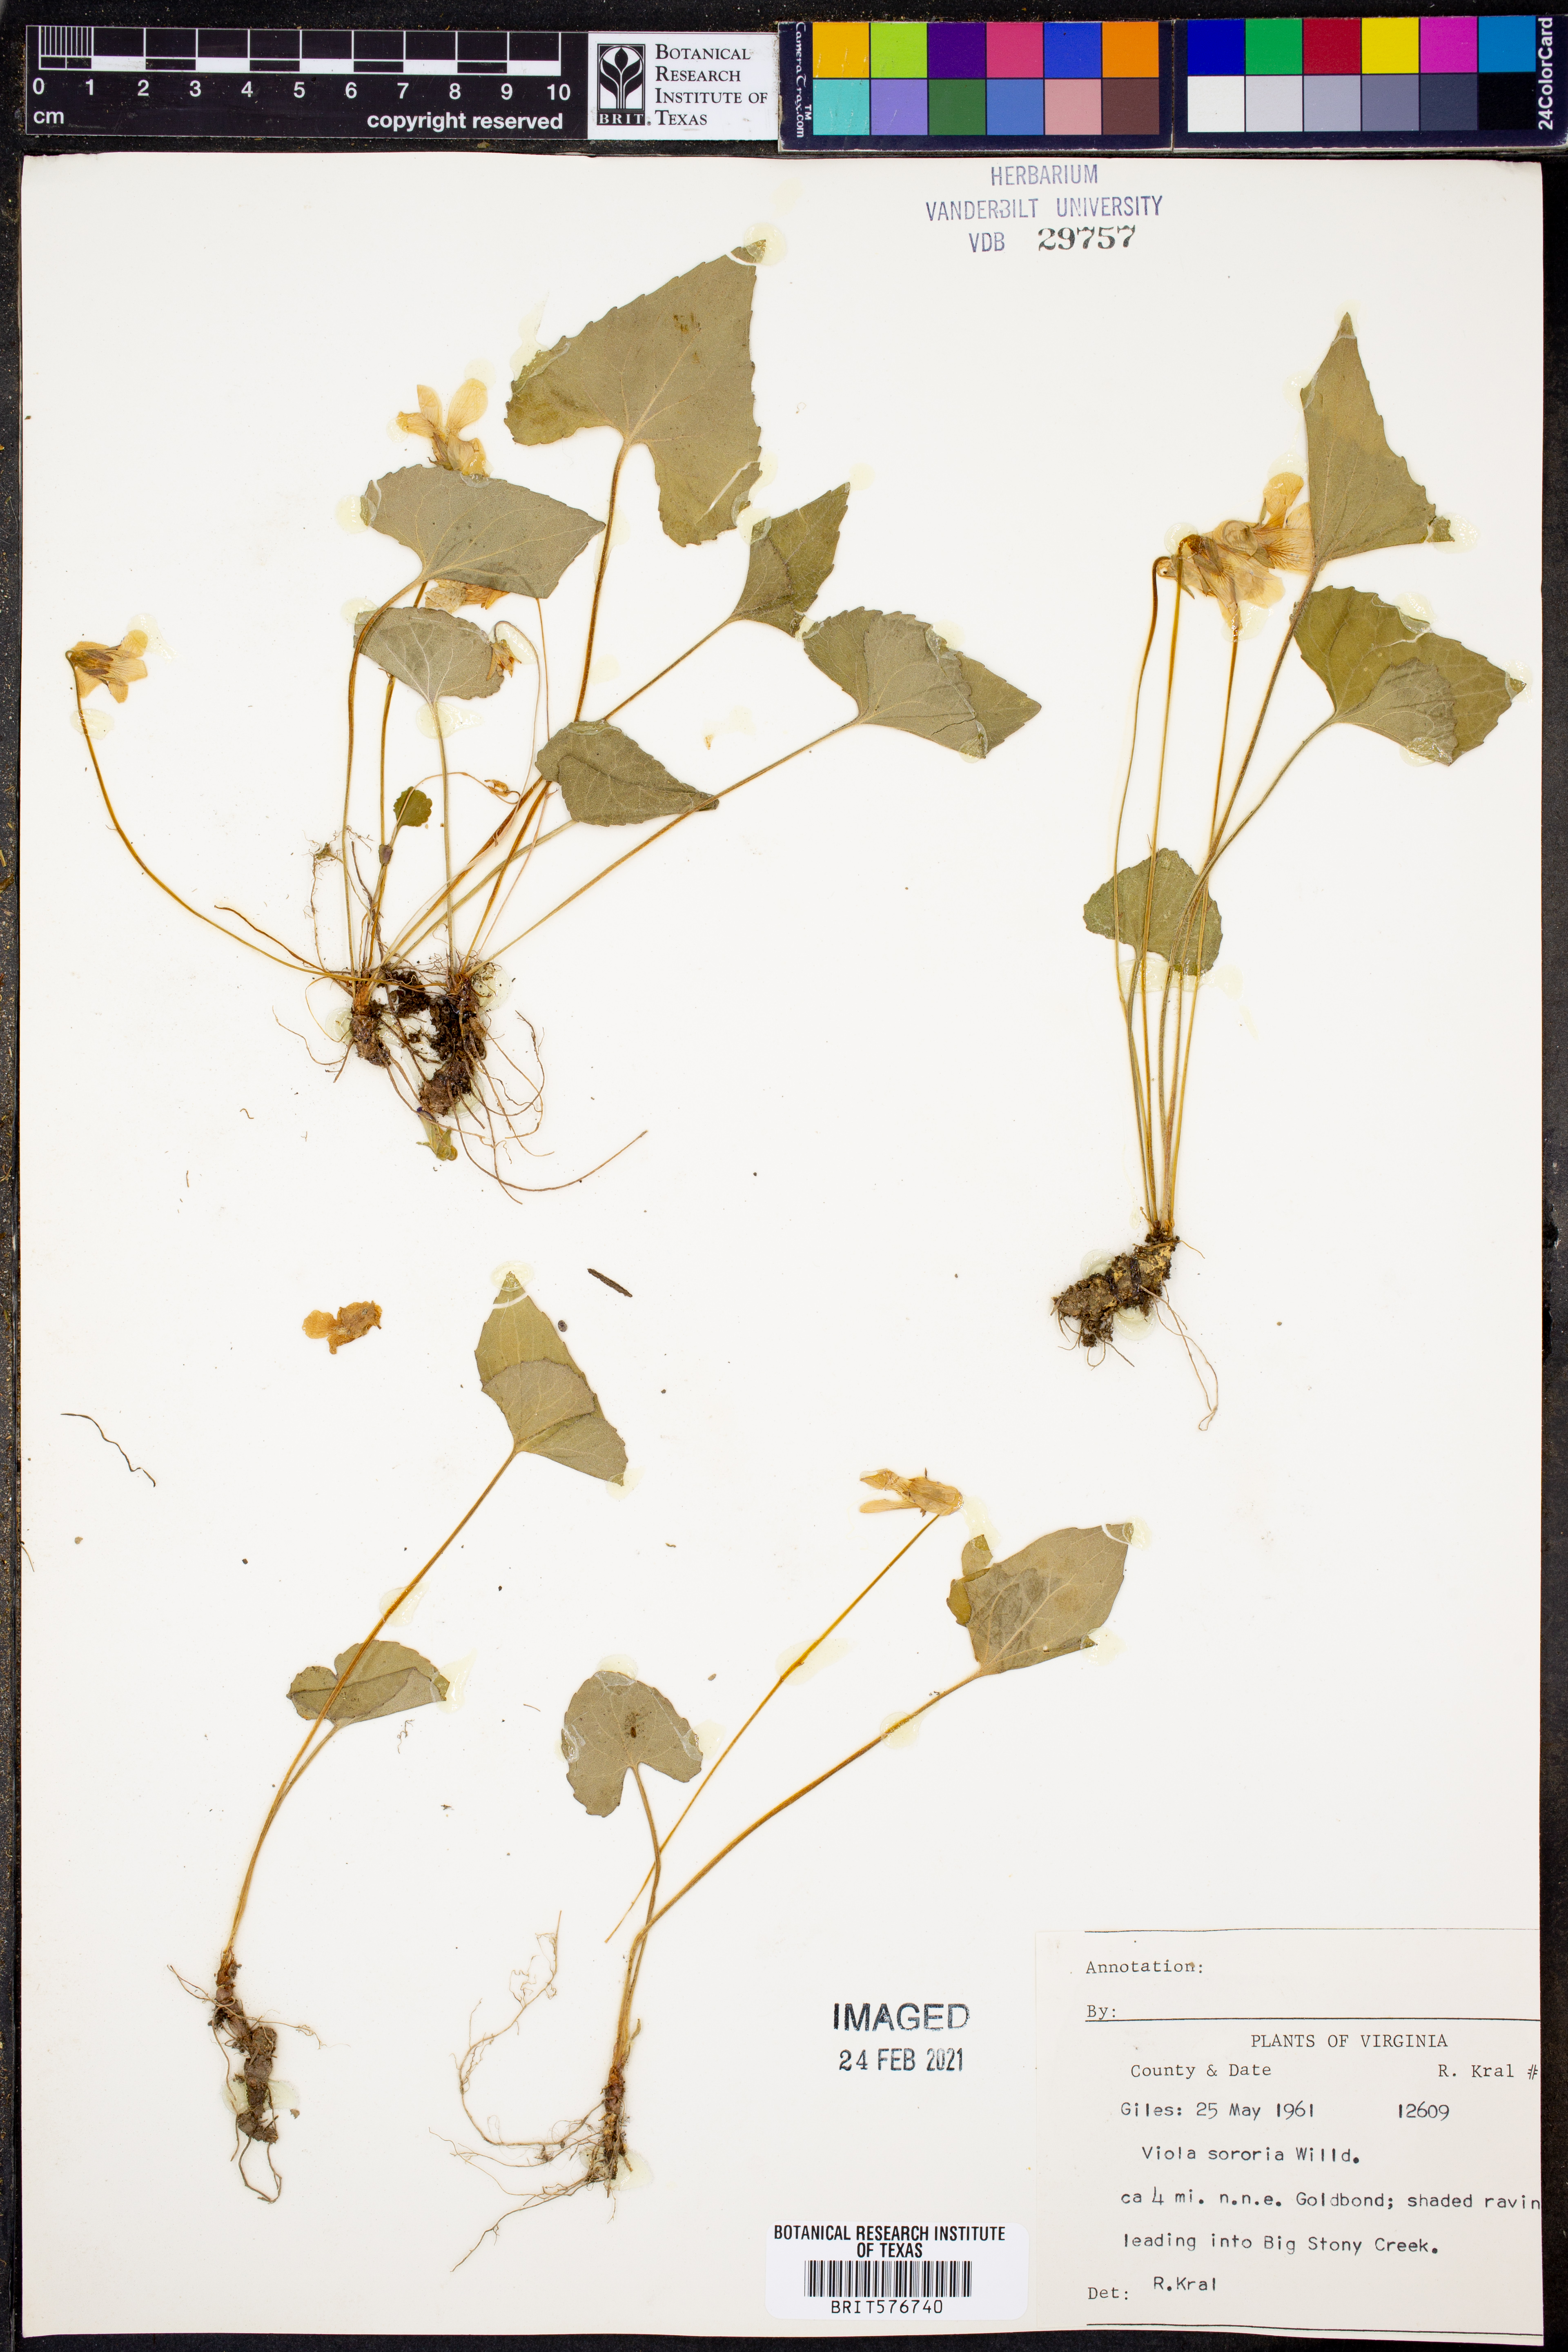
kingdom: Plantae
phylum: Tracheophyta
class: Magnoliopsida
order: Malpighiales
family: Violaceae
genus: Viola
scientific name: Viola sororia
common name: Dooryard violet
